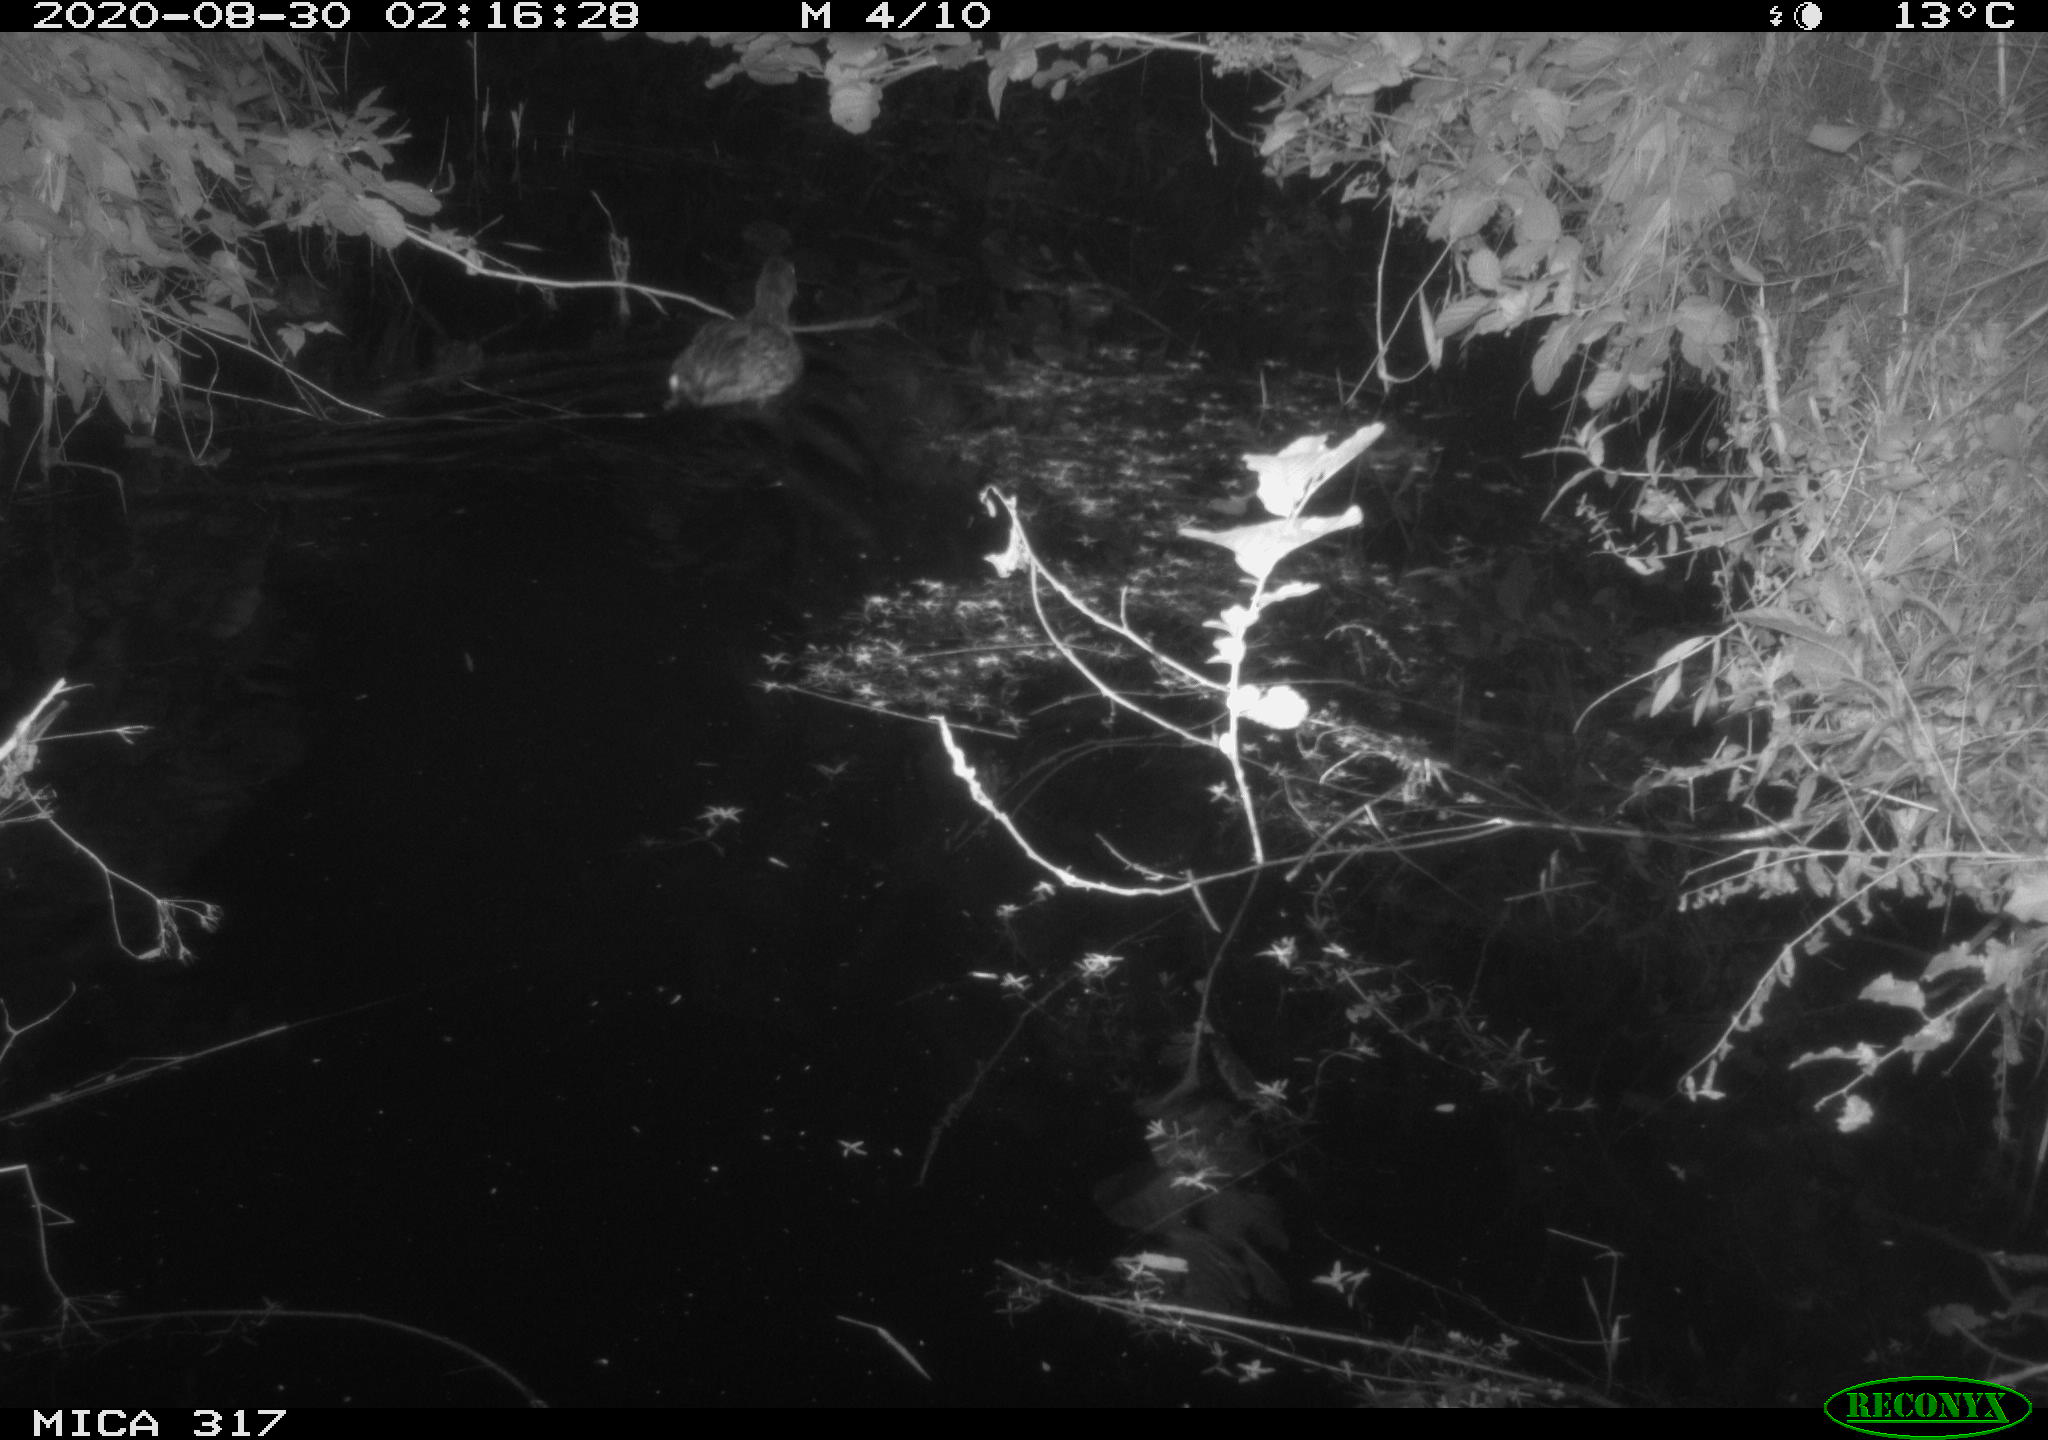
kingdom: Animalia
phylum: Chordata
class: Aves
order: Anseriformes
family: Anatidae
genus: Anas
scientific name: Anas platyrhynchos
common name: Mallard
